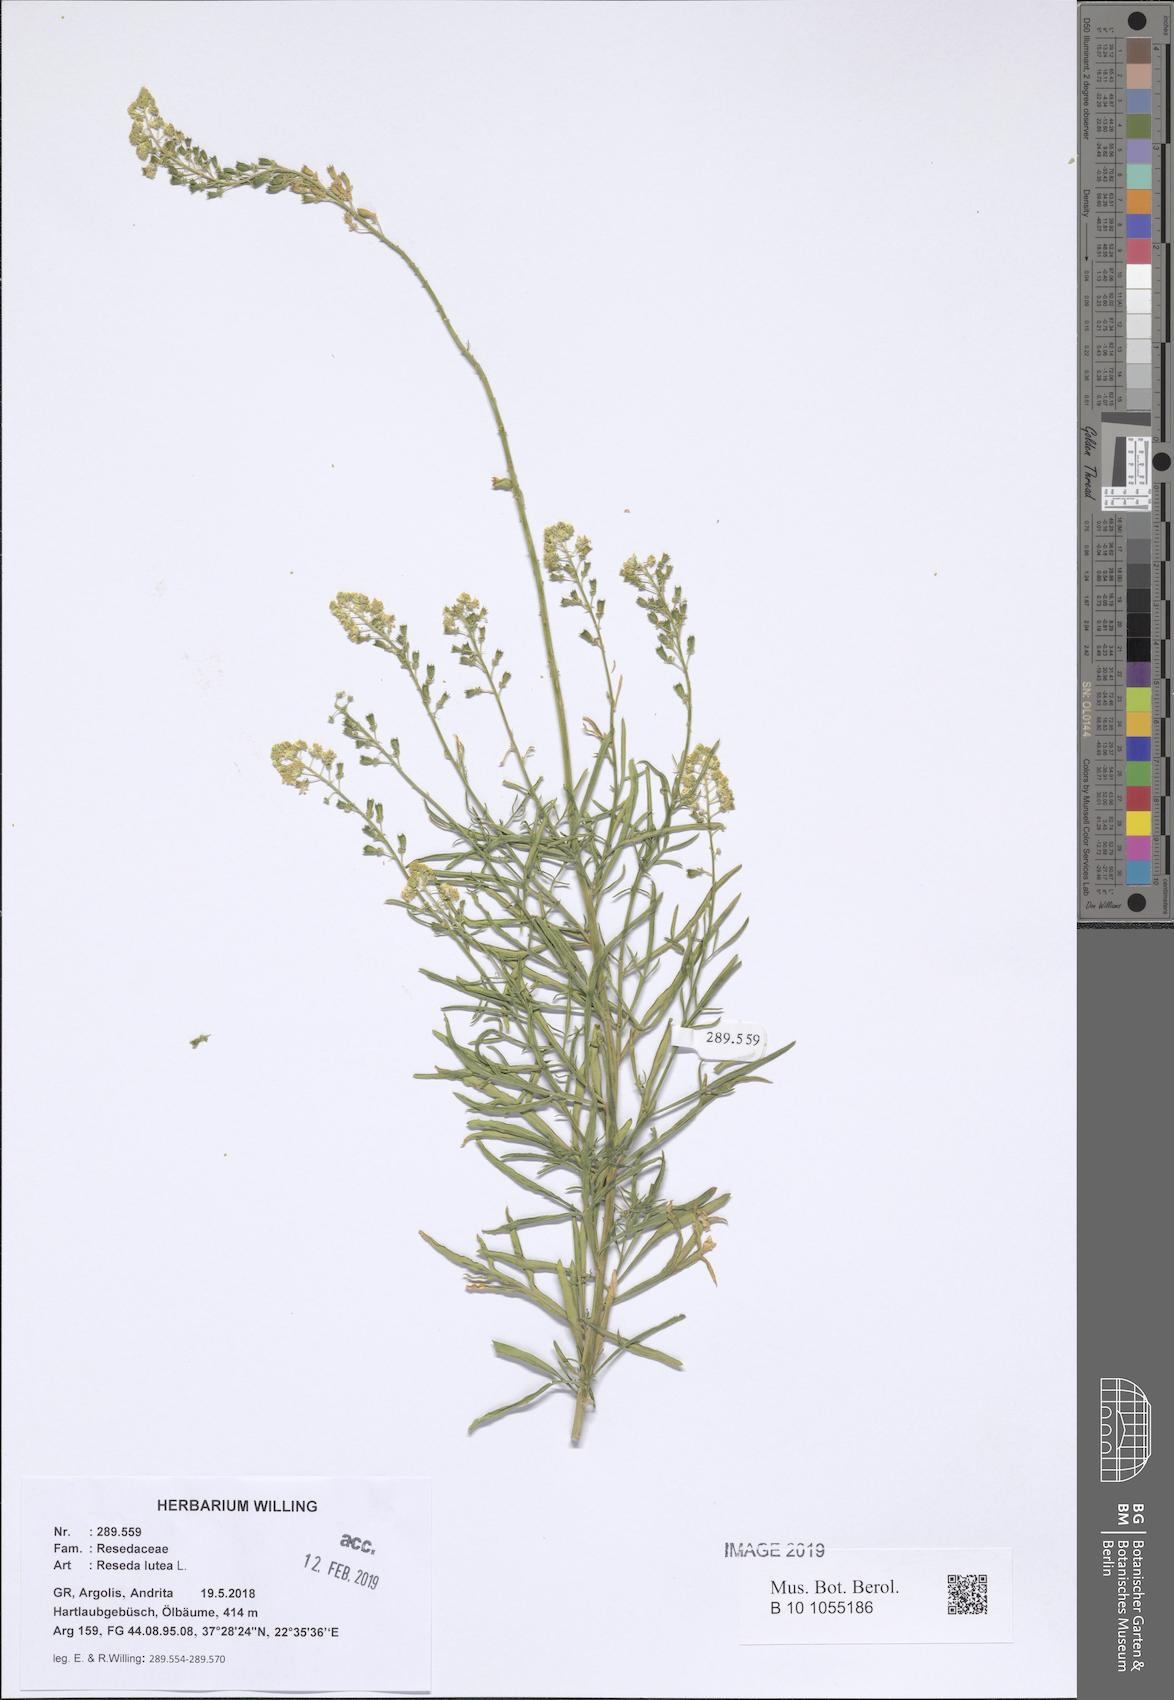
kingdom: Plantae
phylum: Tracheophyta
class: Magnoliopsida
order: Brassicales
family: Resedaceae
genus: Reseda
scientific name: Reseda lutea
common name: Wild mignonette
